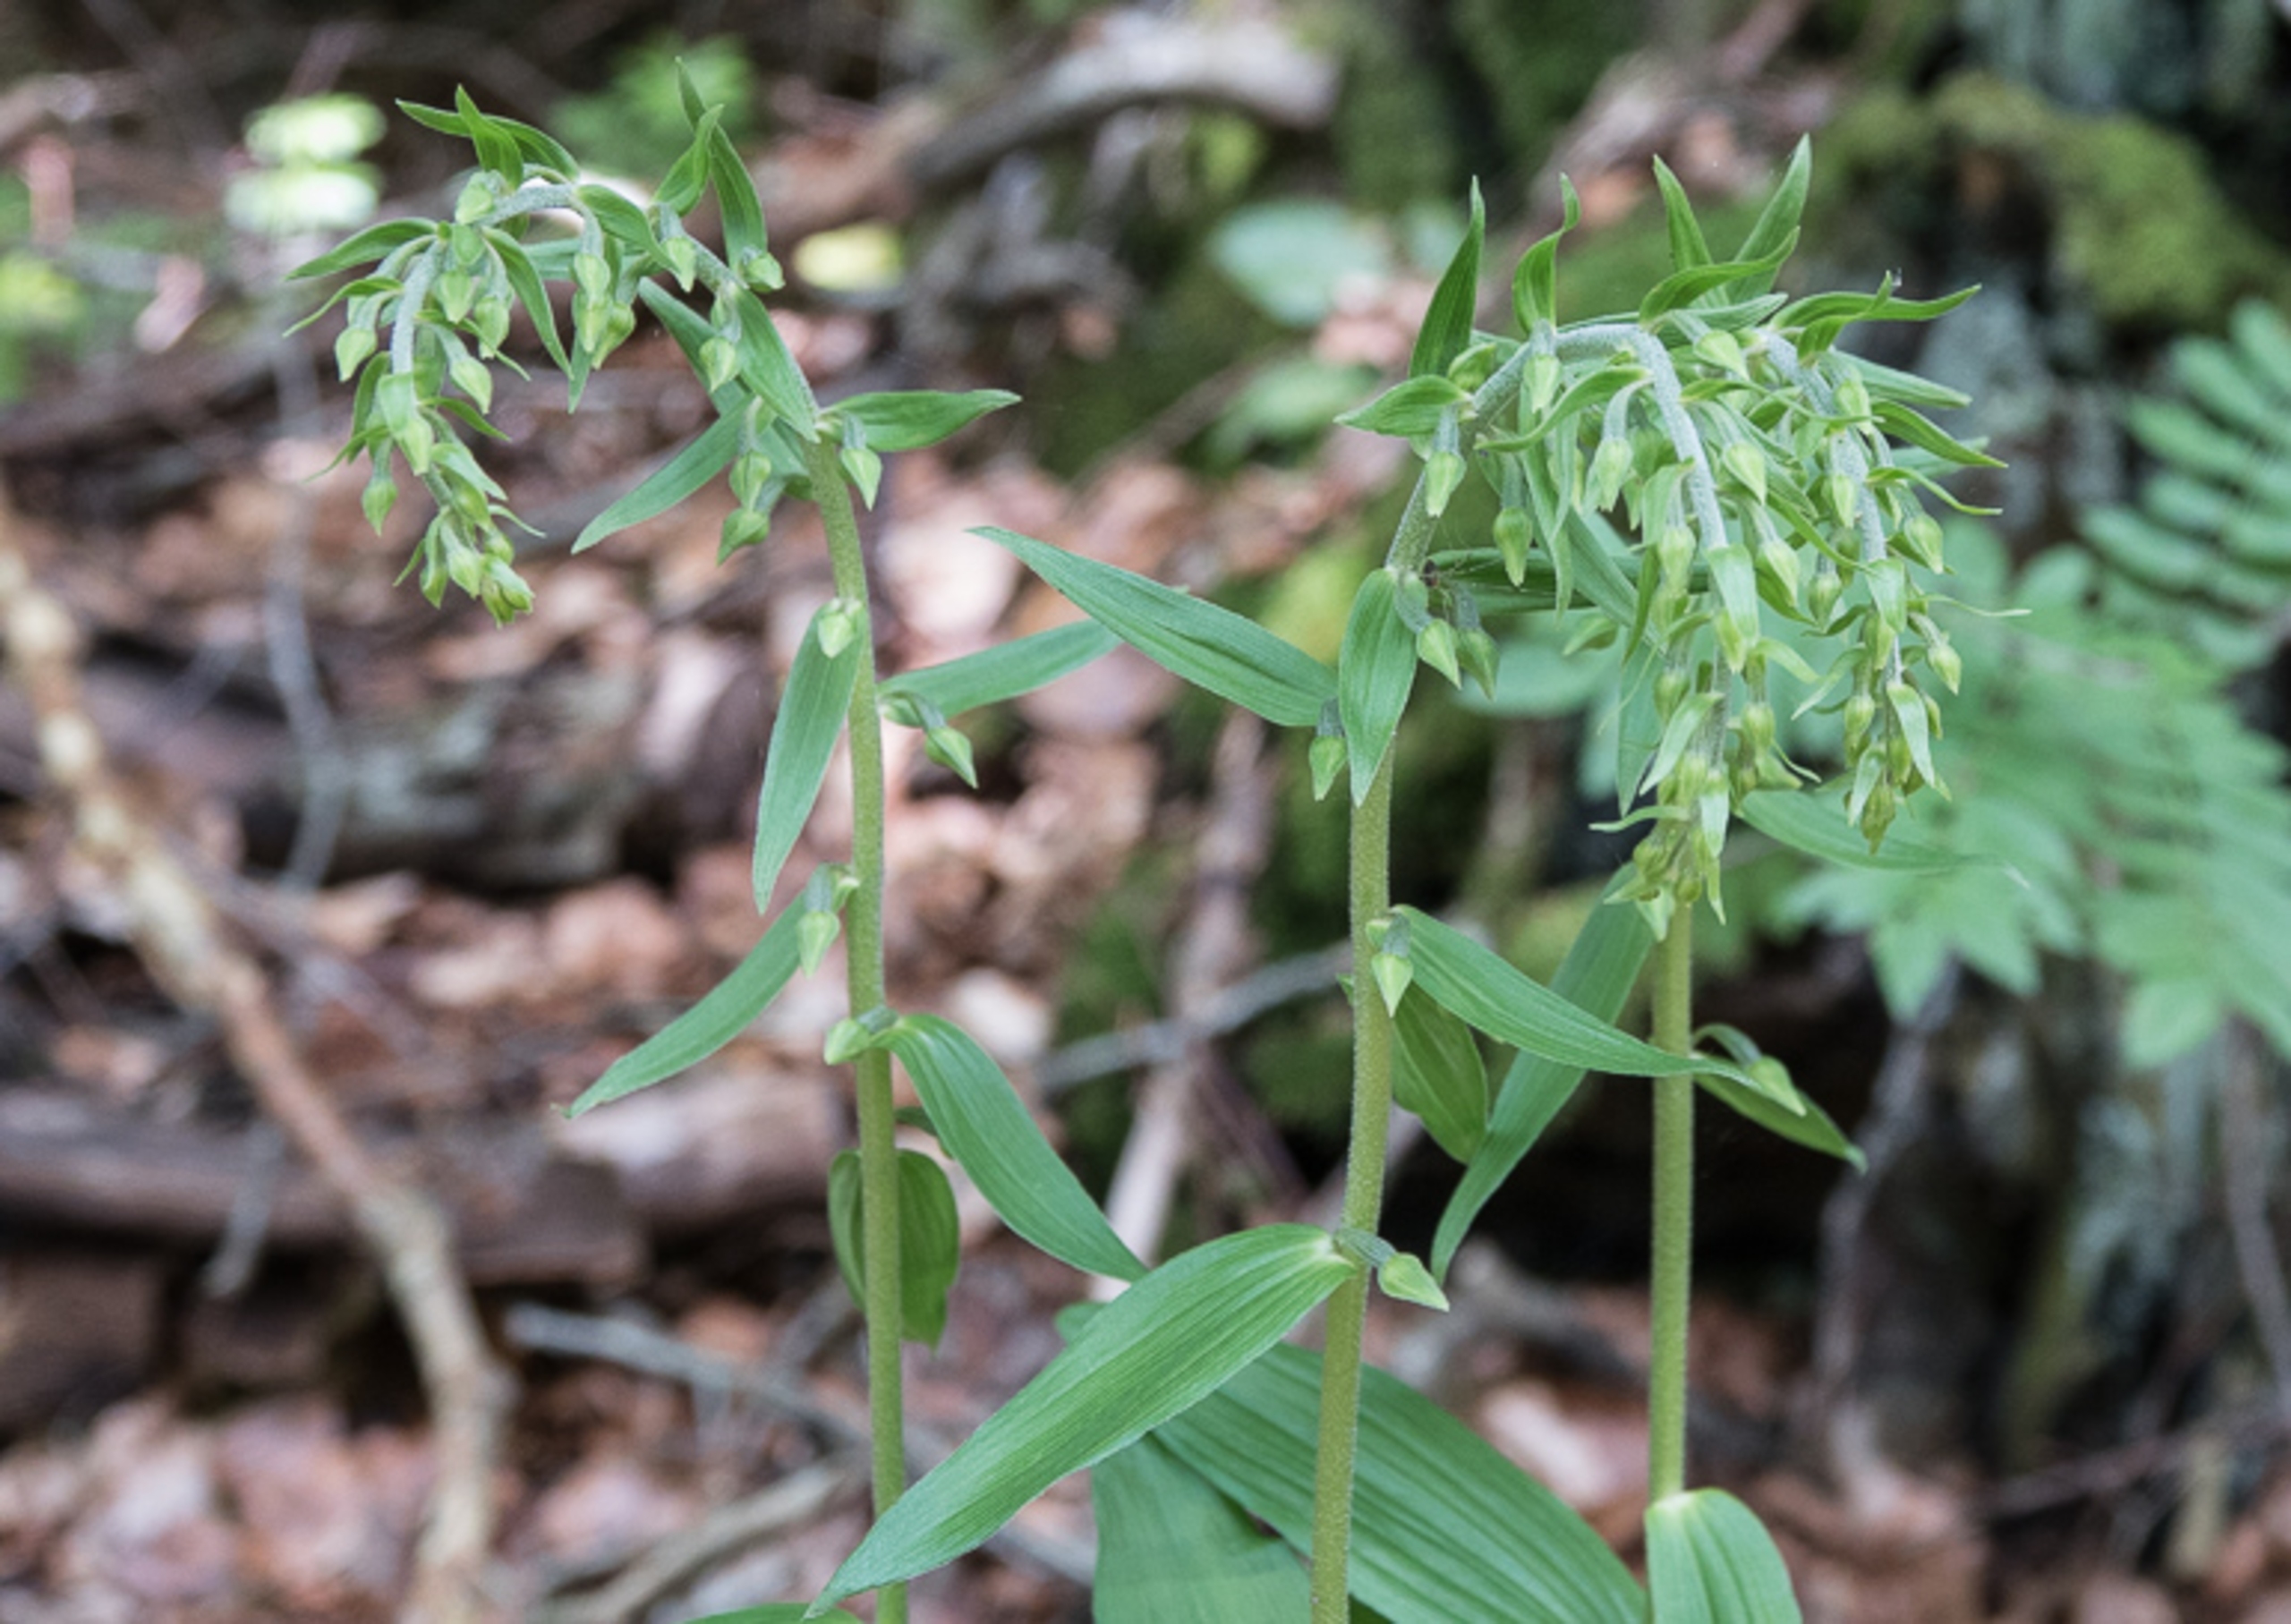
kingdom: Plantae
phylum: Tracheophyta
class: Liliopsida
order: Asparagales
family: Orchidaceae
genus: Epipactis
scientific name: Epipactis helleborine
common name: Skov-hullæbe
